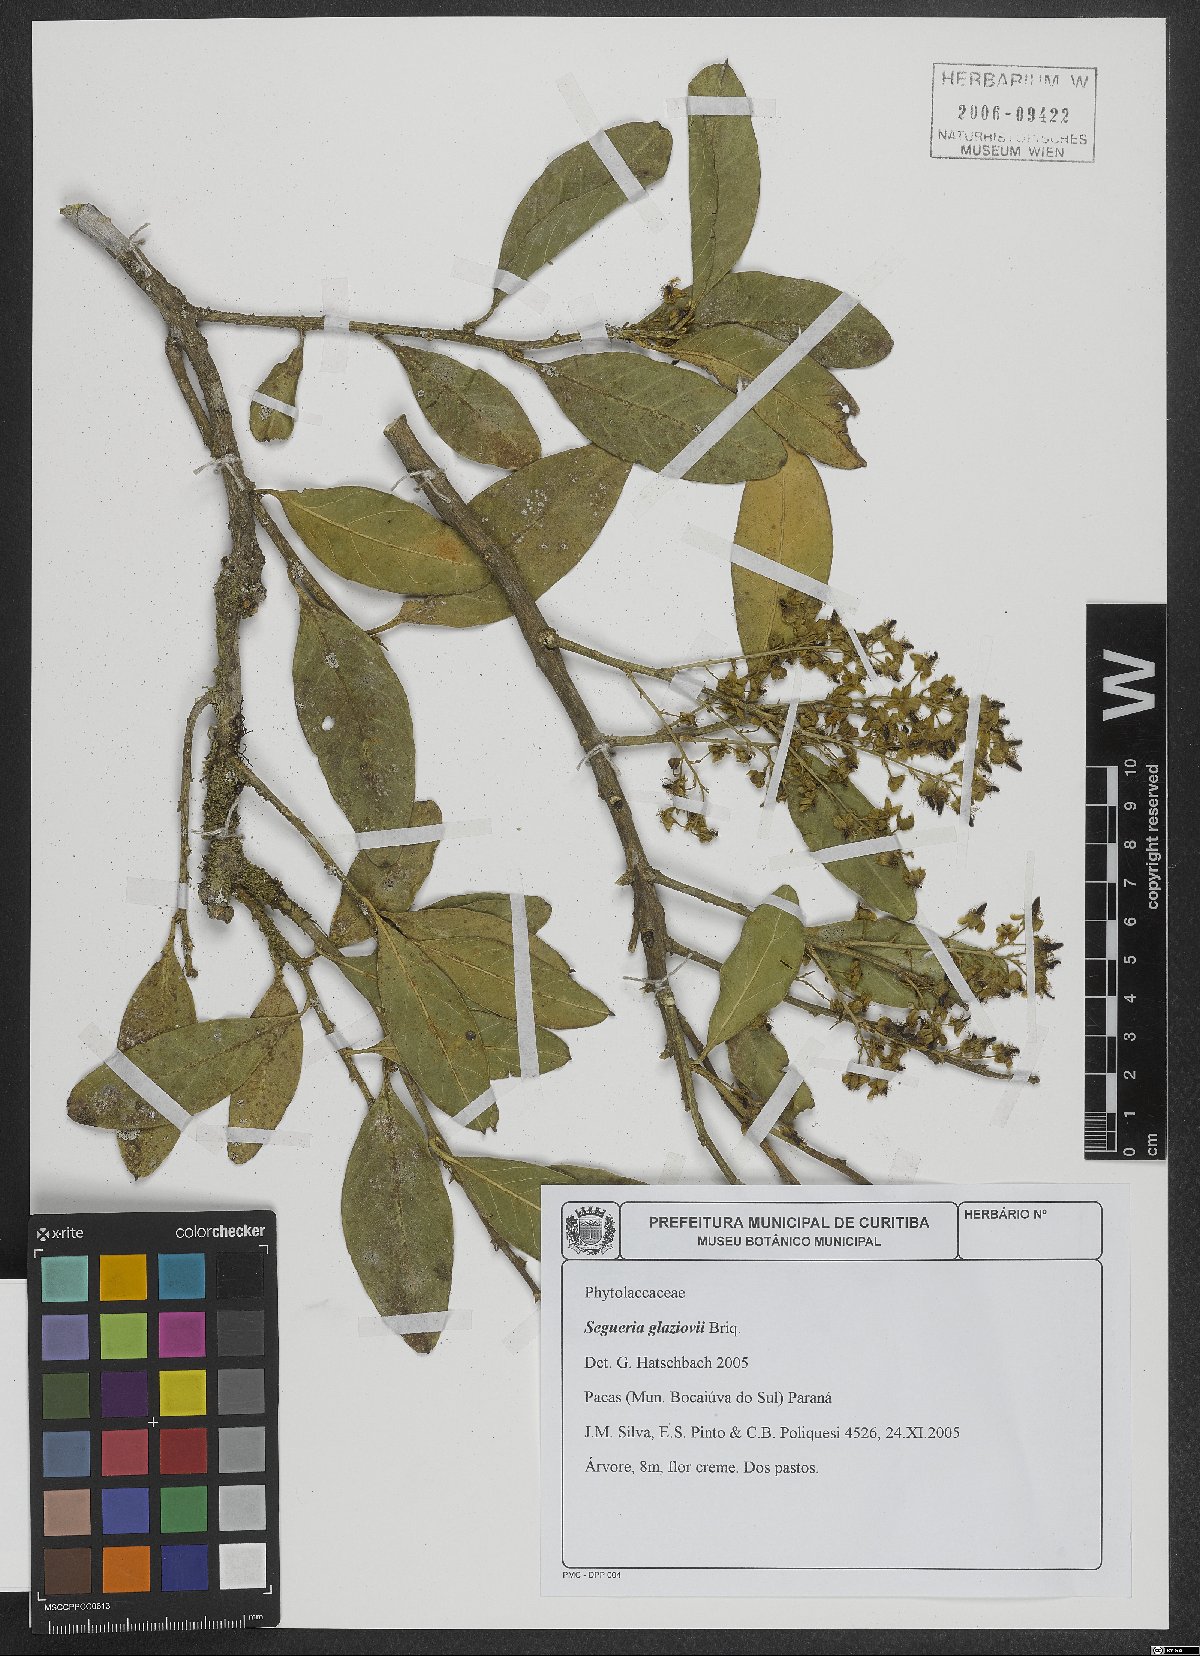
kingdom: Plantae
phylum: Tracheophyta
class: Magnoliopsida
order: Caryophyllales
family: Phytolaccaceae
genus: Seguieria
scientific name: Seguieria langsdorffii
